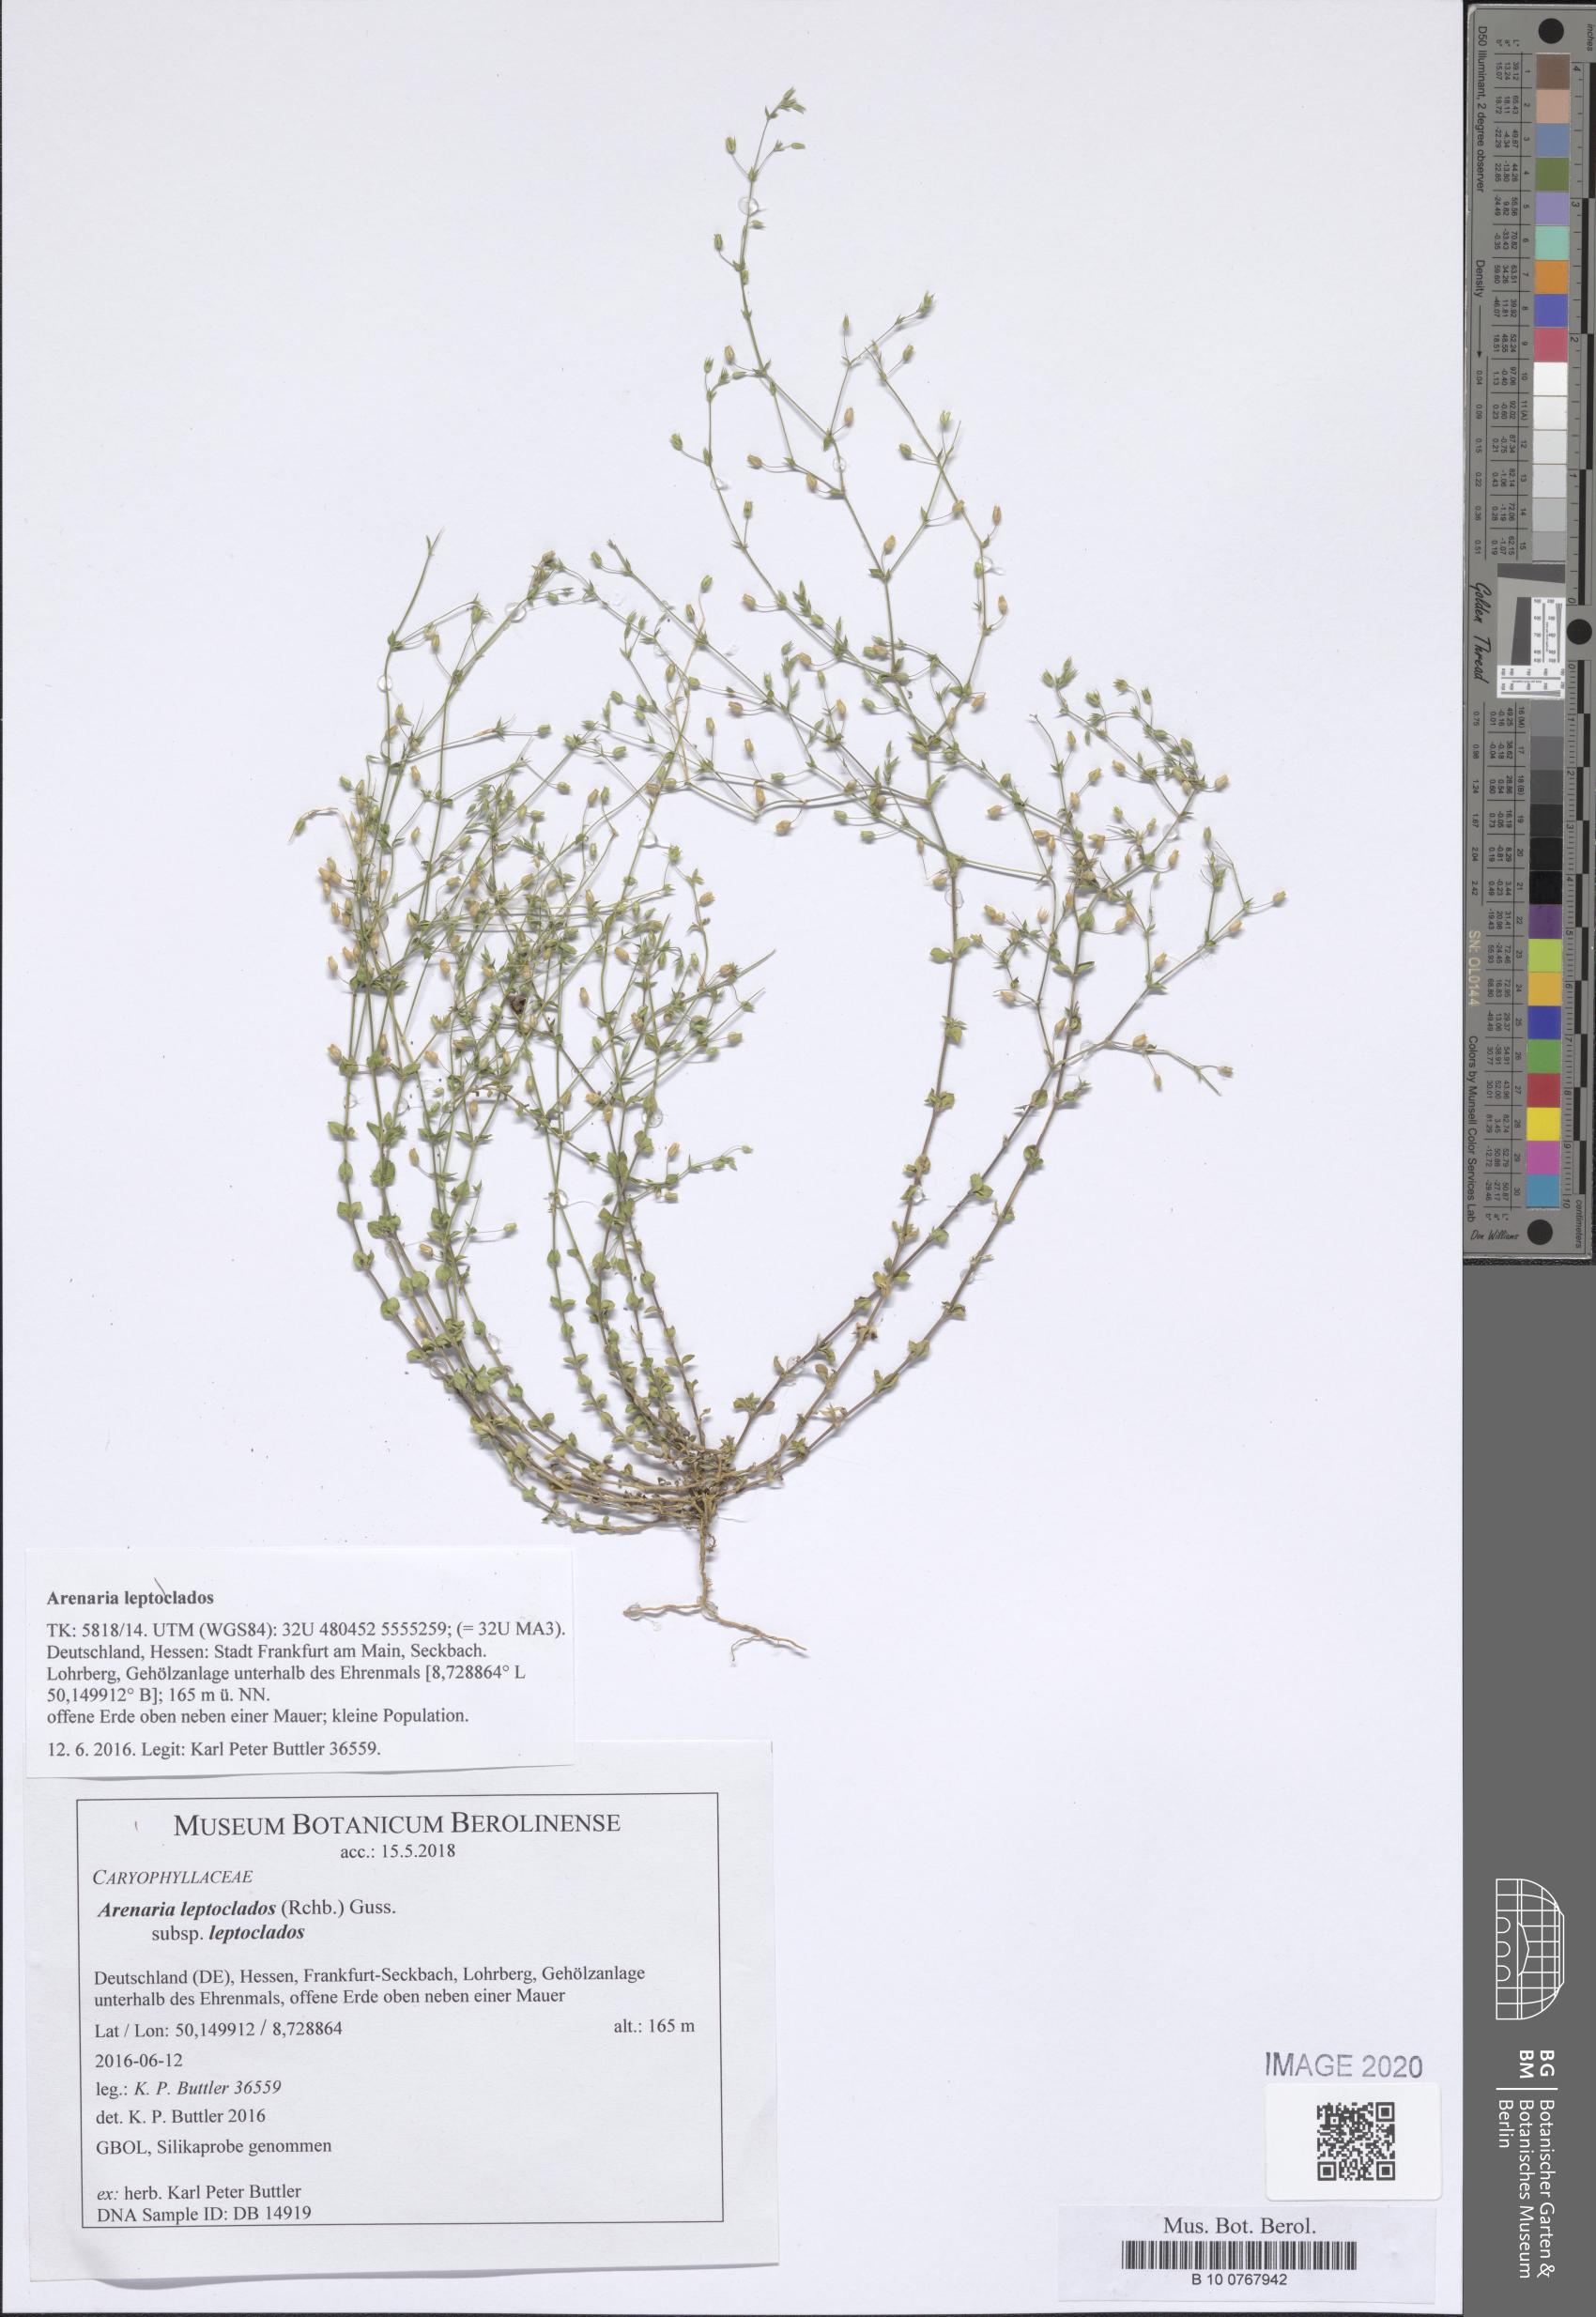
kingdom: Plantae
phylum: Tracheophyta
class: Magnoliopsida
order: Caryophyllales
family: Caryophyllaceae
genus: Arenaria
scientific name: Arenaria leptoclados
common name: Thyme-leaved sandwort
